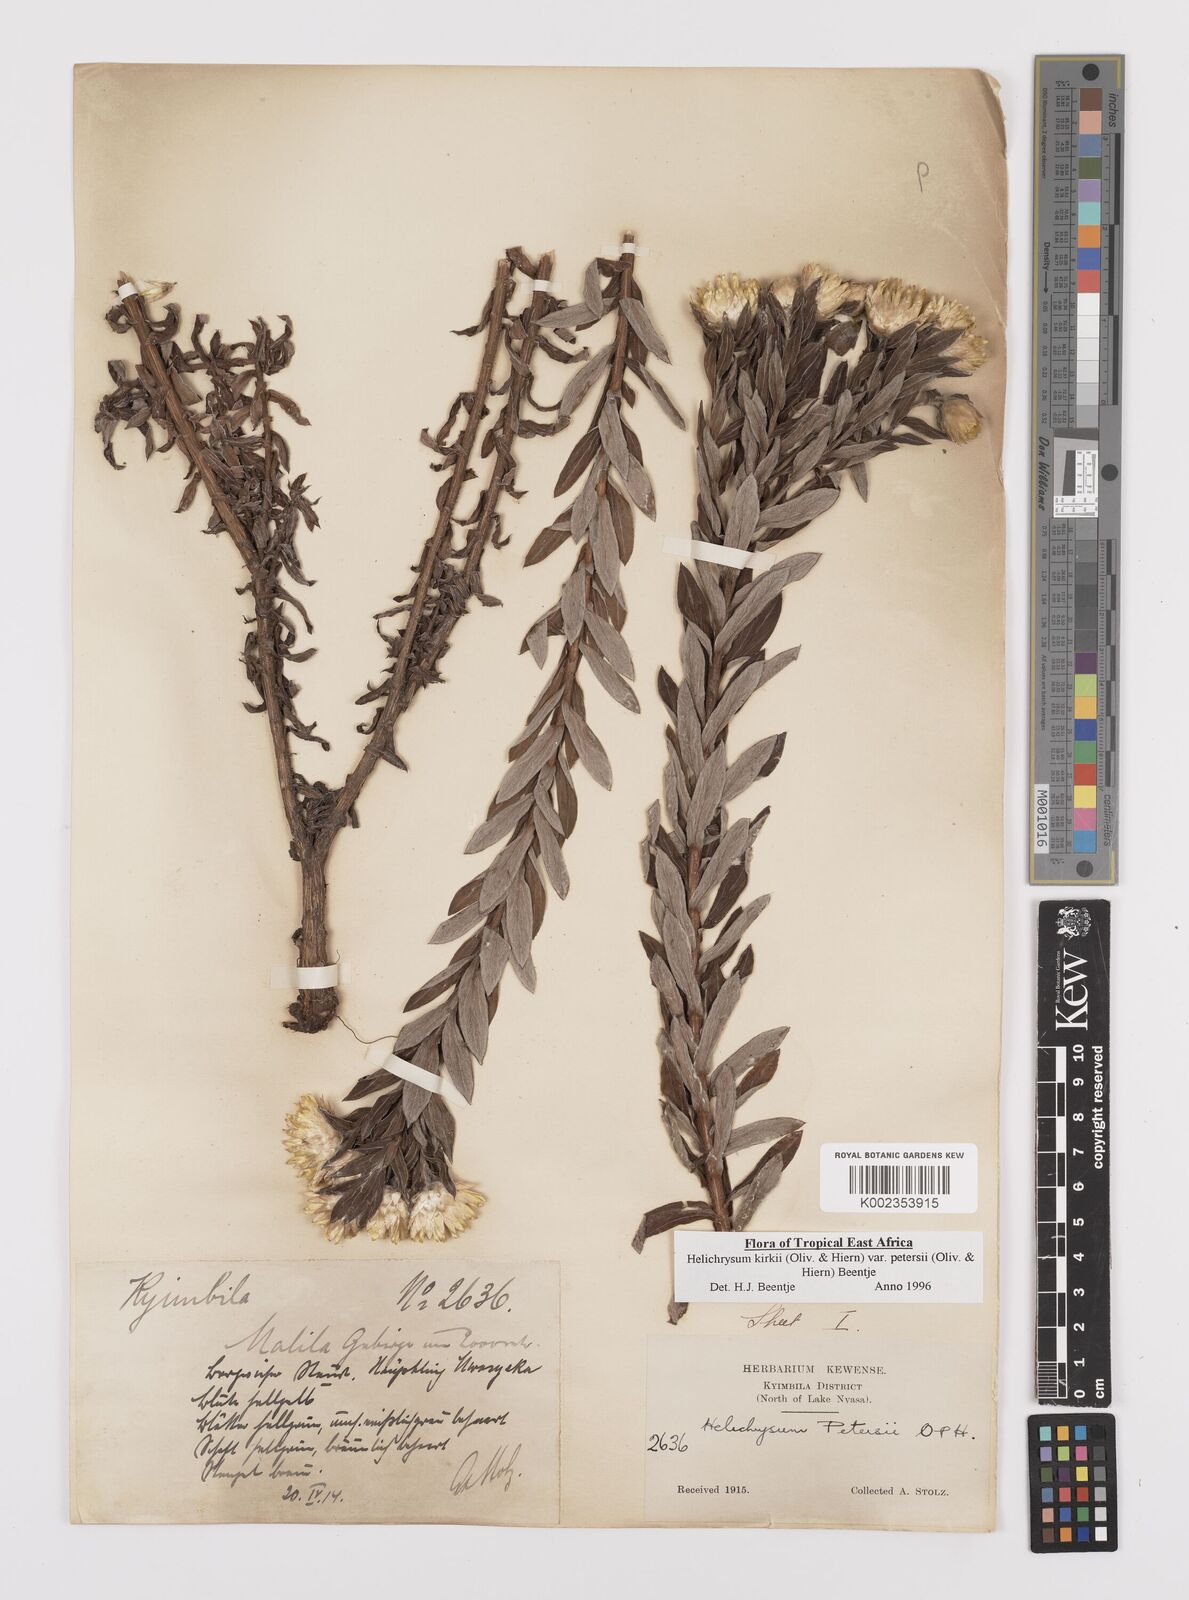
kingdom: Plantae
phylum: Tracheophyta
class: Magnoliopsida
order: Asterales
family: Asteraceae
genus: Helichrysum
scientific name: Helichrysum kirkii
